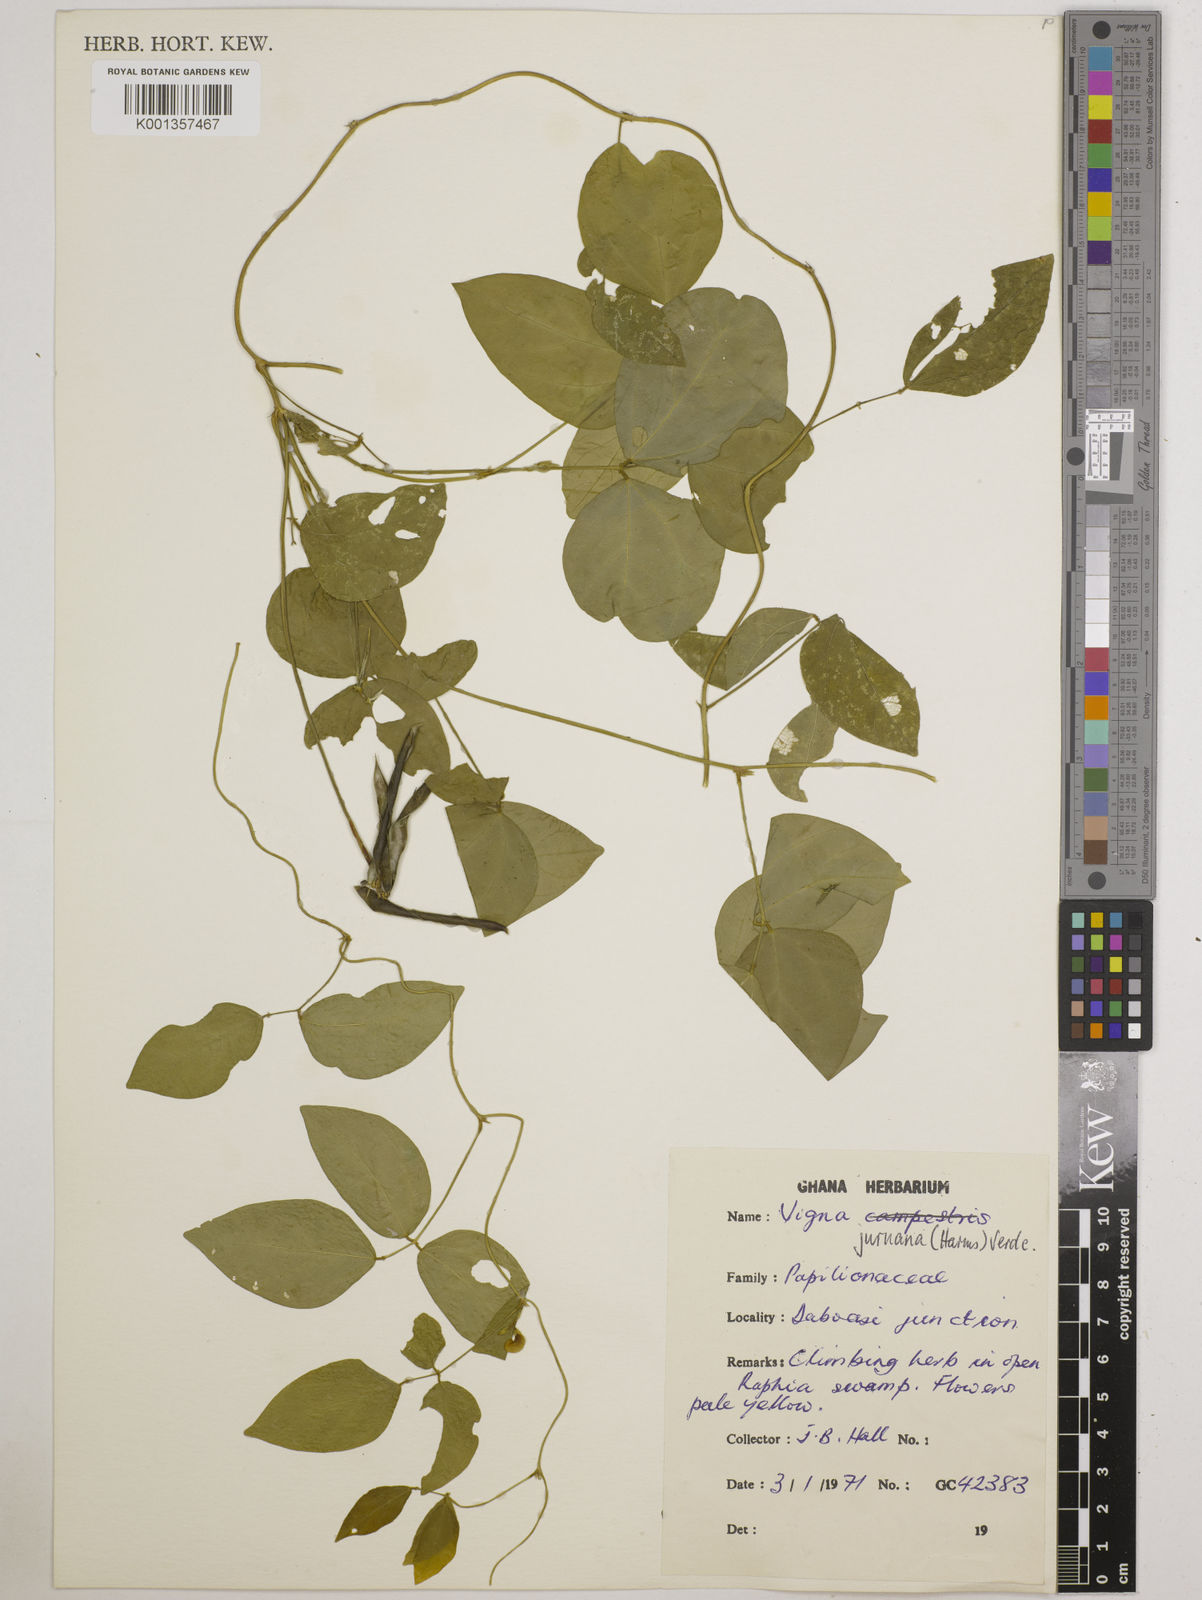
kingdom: Plantae
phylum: Tracheophyta
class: Magnoliopsida
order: Fabales
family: Fabaceae
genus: Vigna
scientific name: Vigna juruana
